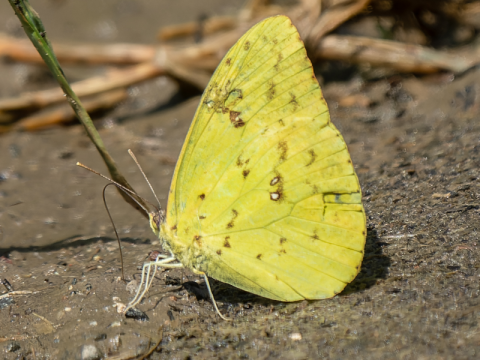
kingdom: Animalia
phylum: Arthropoda
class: Insecta
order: Lepidoptera
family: Pieridae
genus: Phoebis
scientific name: Phoebis sennae
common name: Cloudless Sulphur
